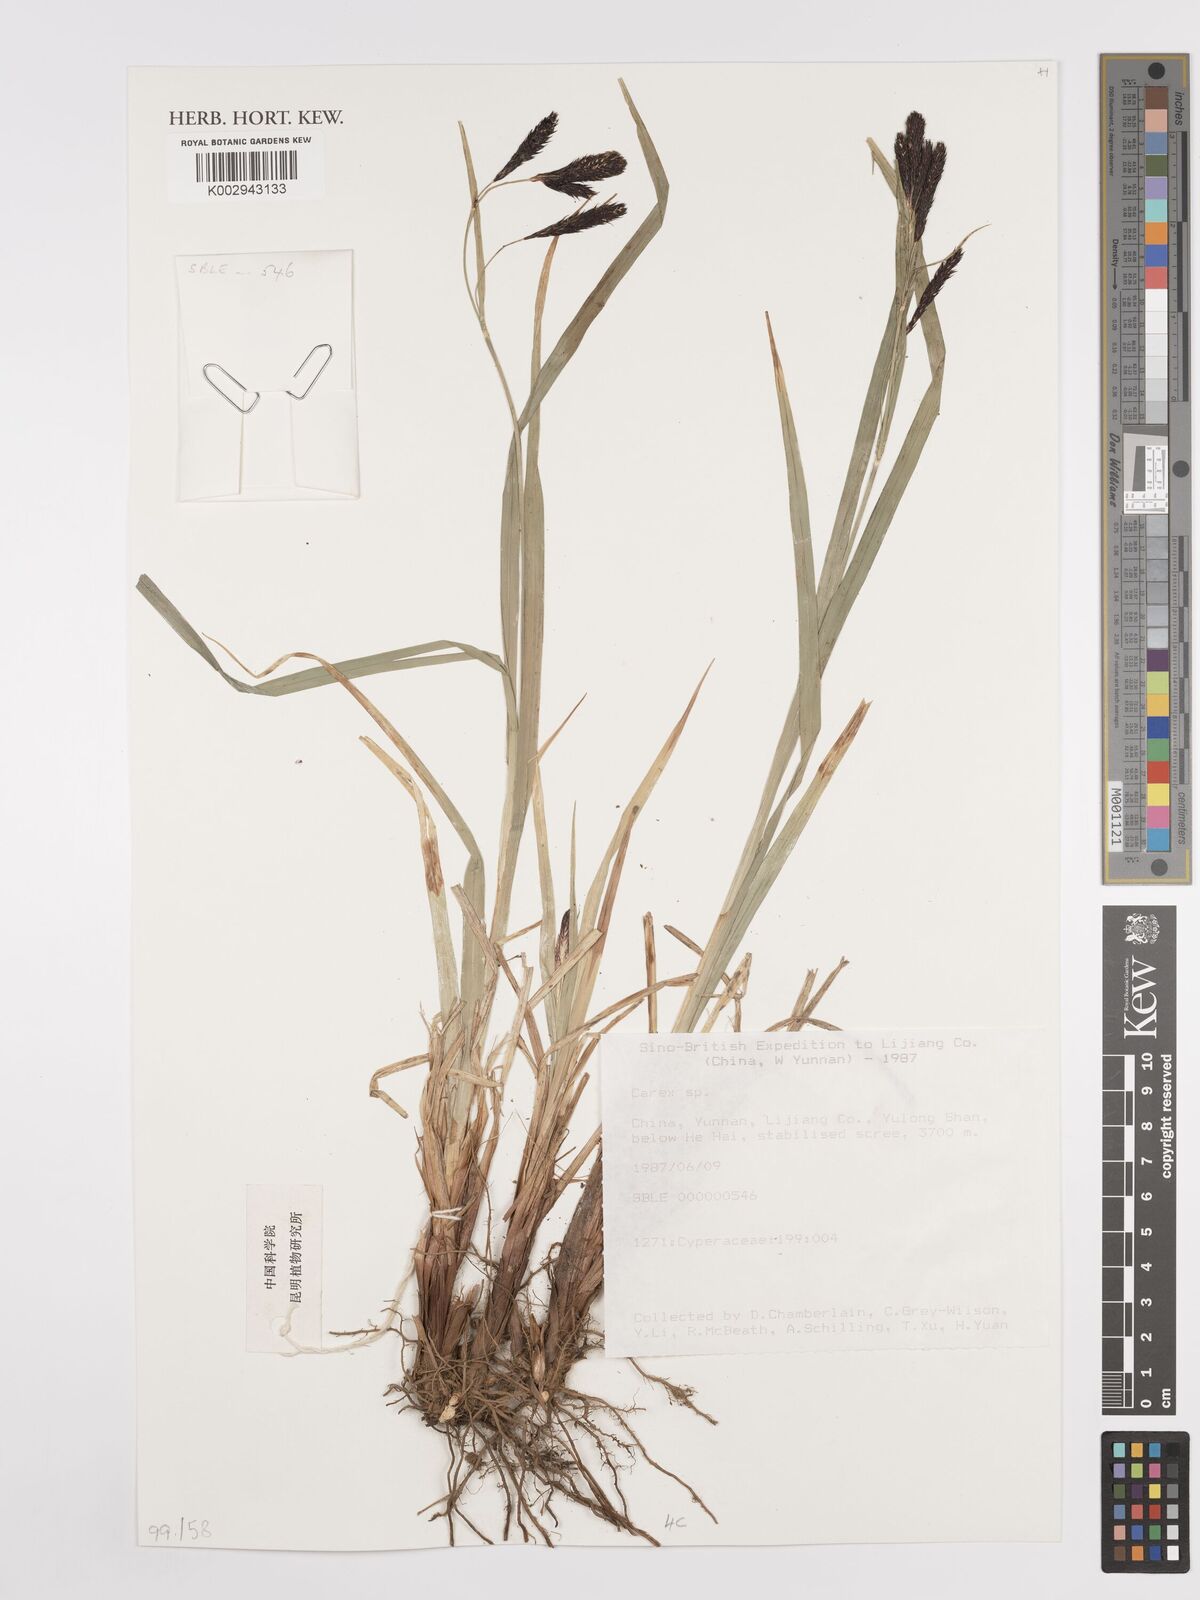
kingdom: Plantae
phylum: Tracheophyta
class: Liliopsida
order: Poales
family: Cyperaceae
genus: Carex
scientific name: Carex
